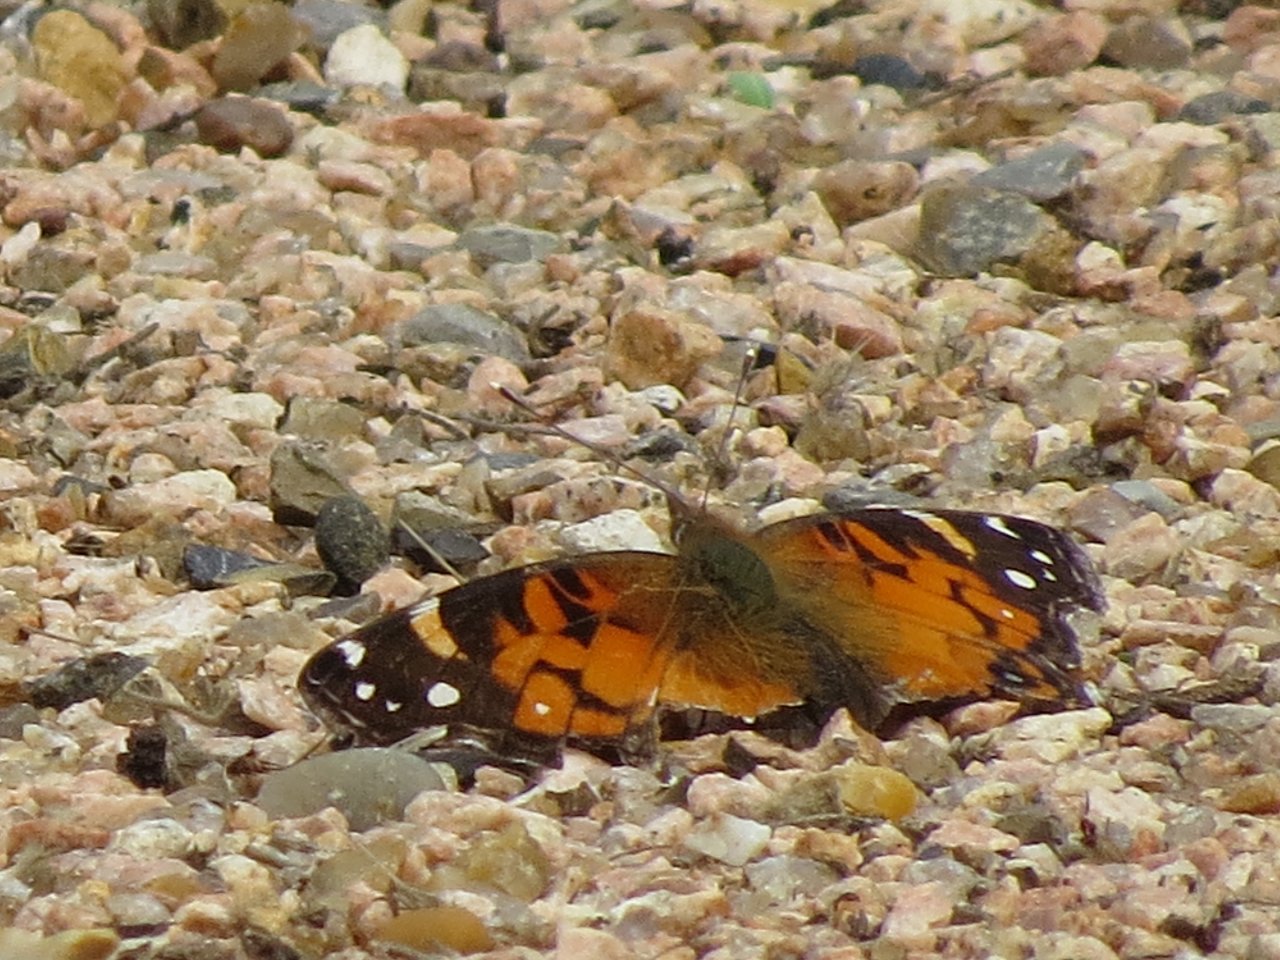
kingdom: Animalia
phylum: Arthropoda
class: Insecta
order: Lepidoptera
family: Nymphalidae
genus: Vanessa
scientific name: Vanessa virginiensis
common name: American Lady
